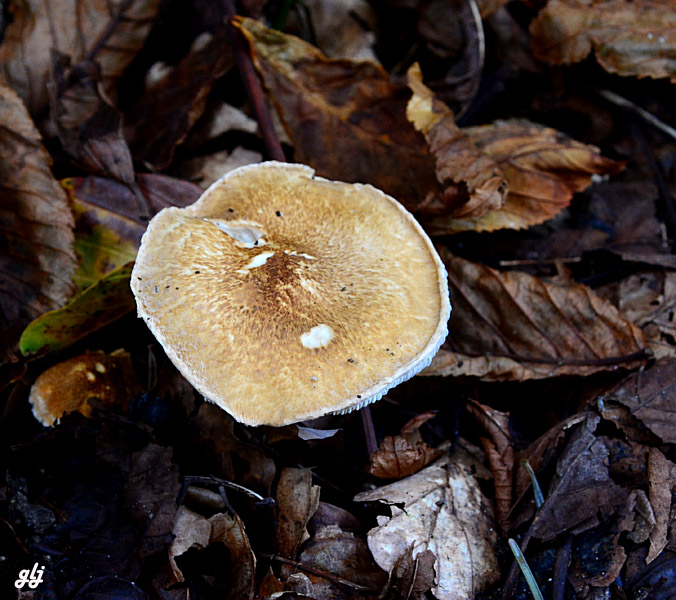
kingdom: Fungi
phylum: Basidiomycota
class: Agaricomycetes
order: Agaricales
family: Agaricaceae
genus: Leucocoprinus
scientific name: Leucocoprinus straminellus
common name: rustbrun parasolhat
